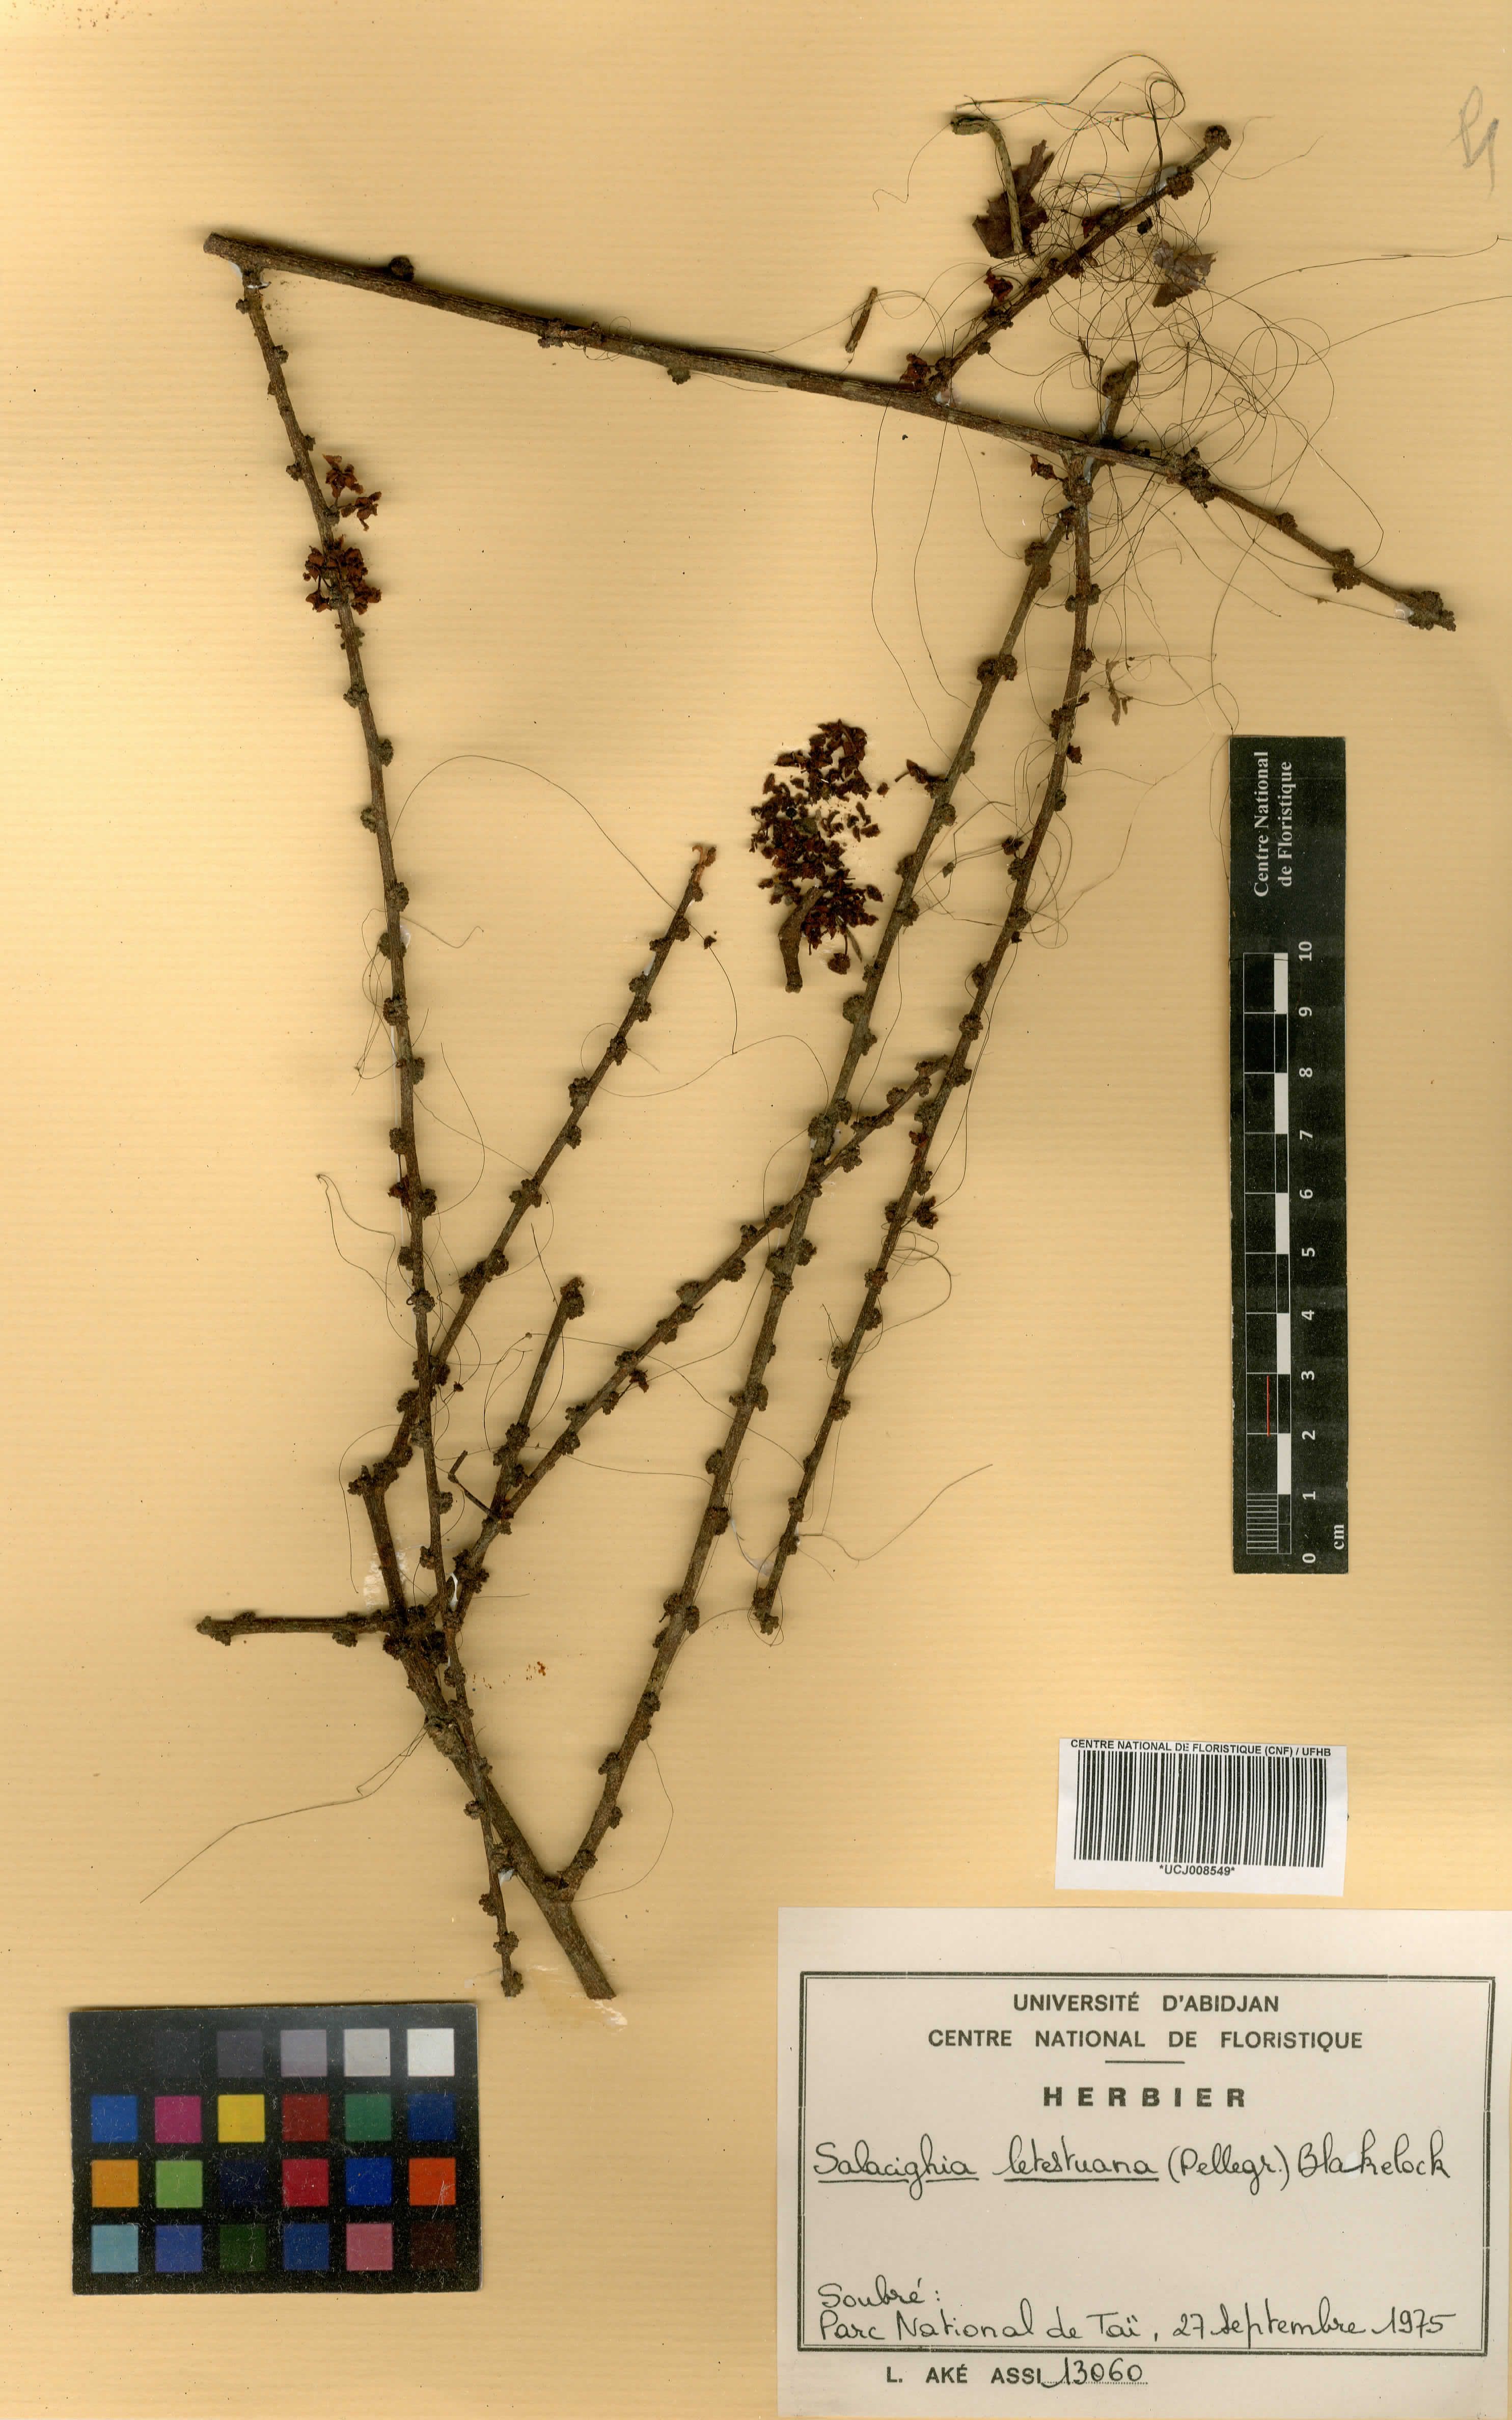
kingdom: Plantae
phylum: Tracheophyta
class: Magnoliopsida
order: Celastrales
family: Celastraceae
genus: Salacighia
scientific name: Salacighia letestuana
